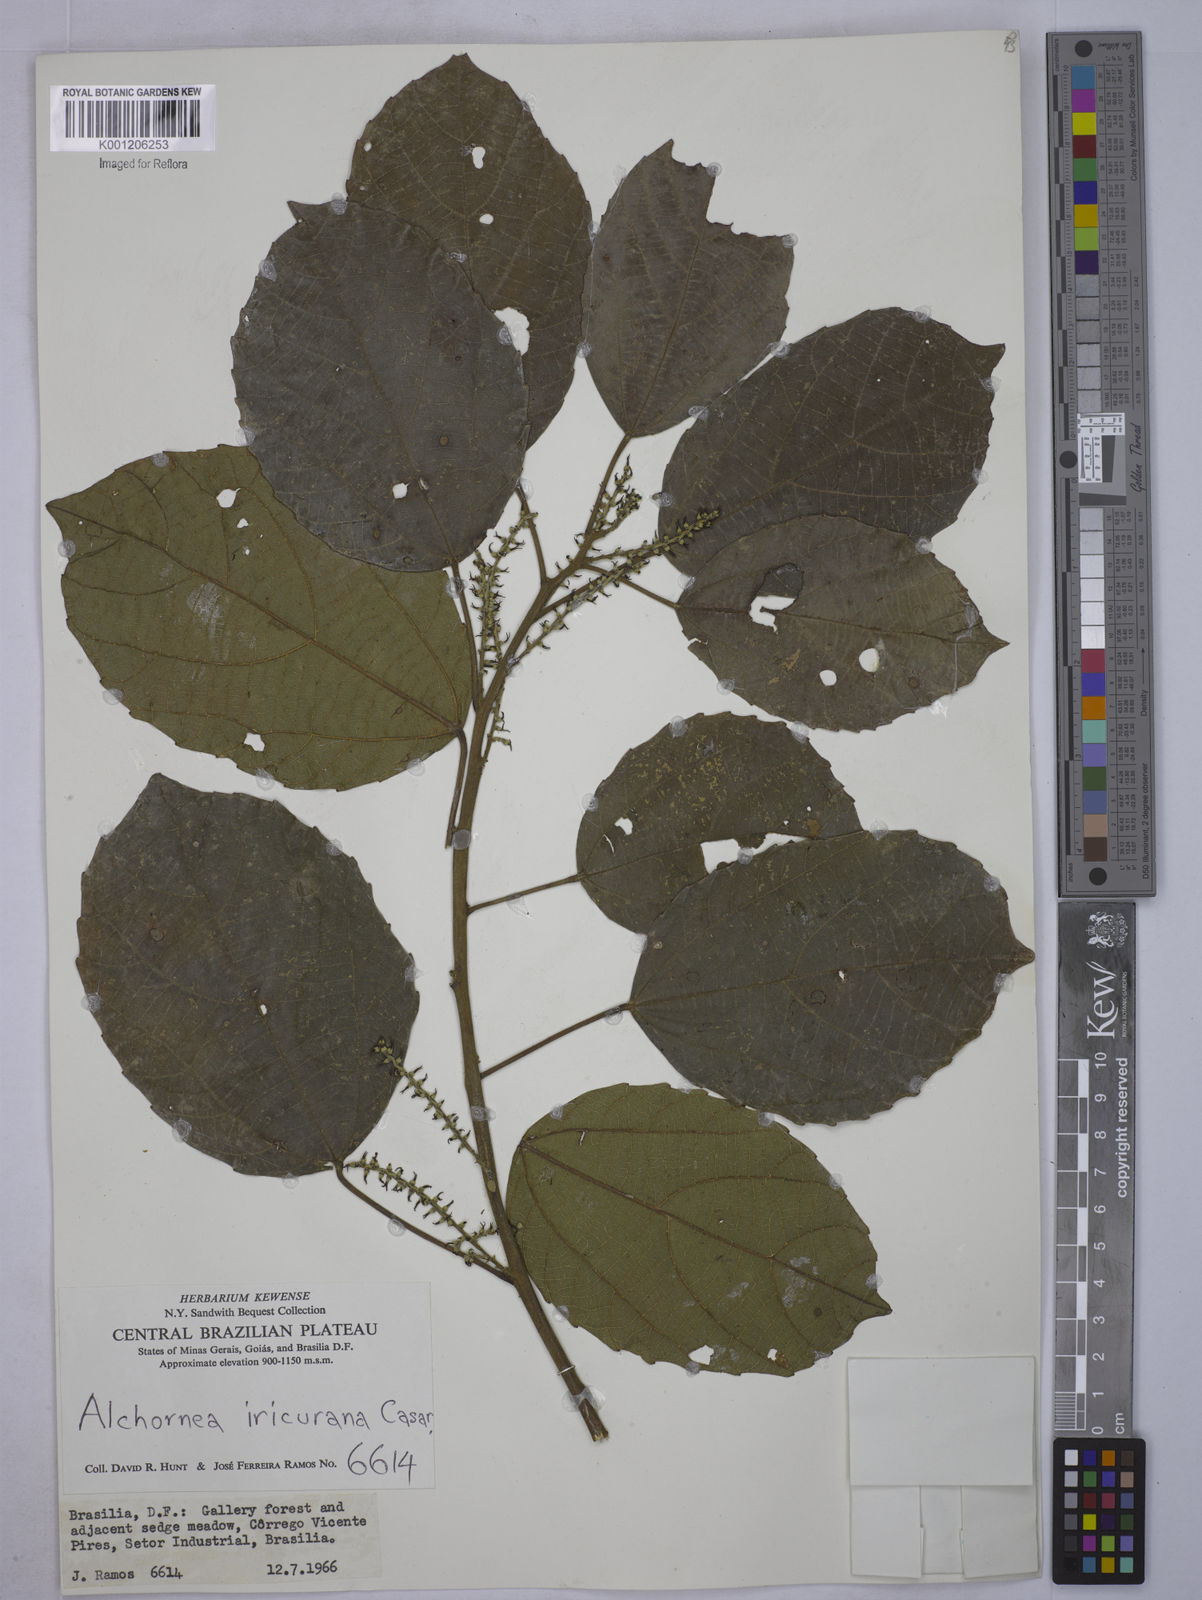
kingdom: Plantae
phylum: Tracheophyta
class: Magnoliopsida
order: Malpighiales
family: Euphorbiaceae
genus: Alchornea
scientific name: Alchornea glandulosa
